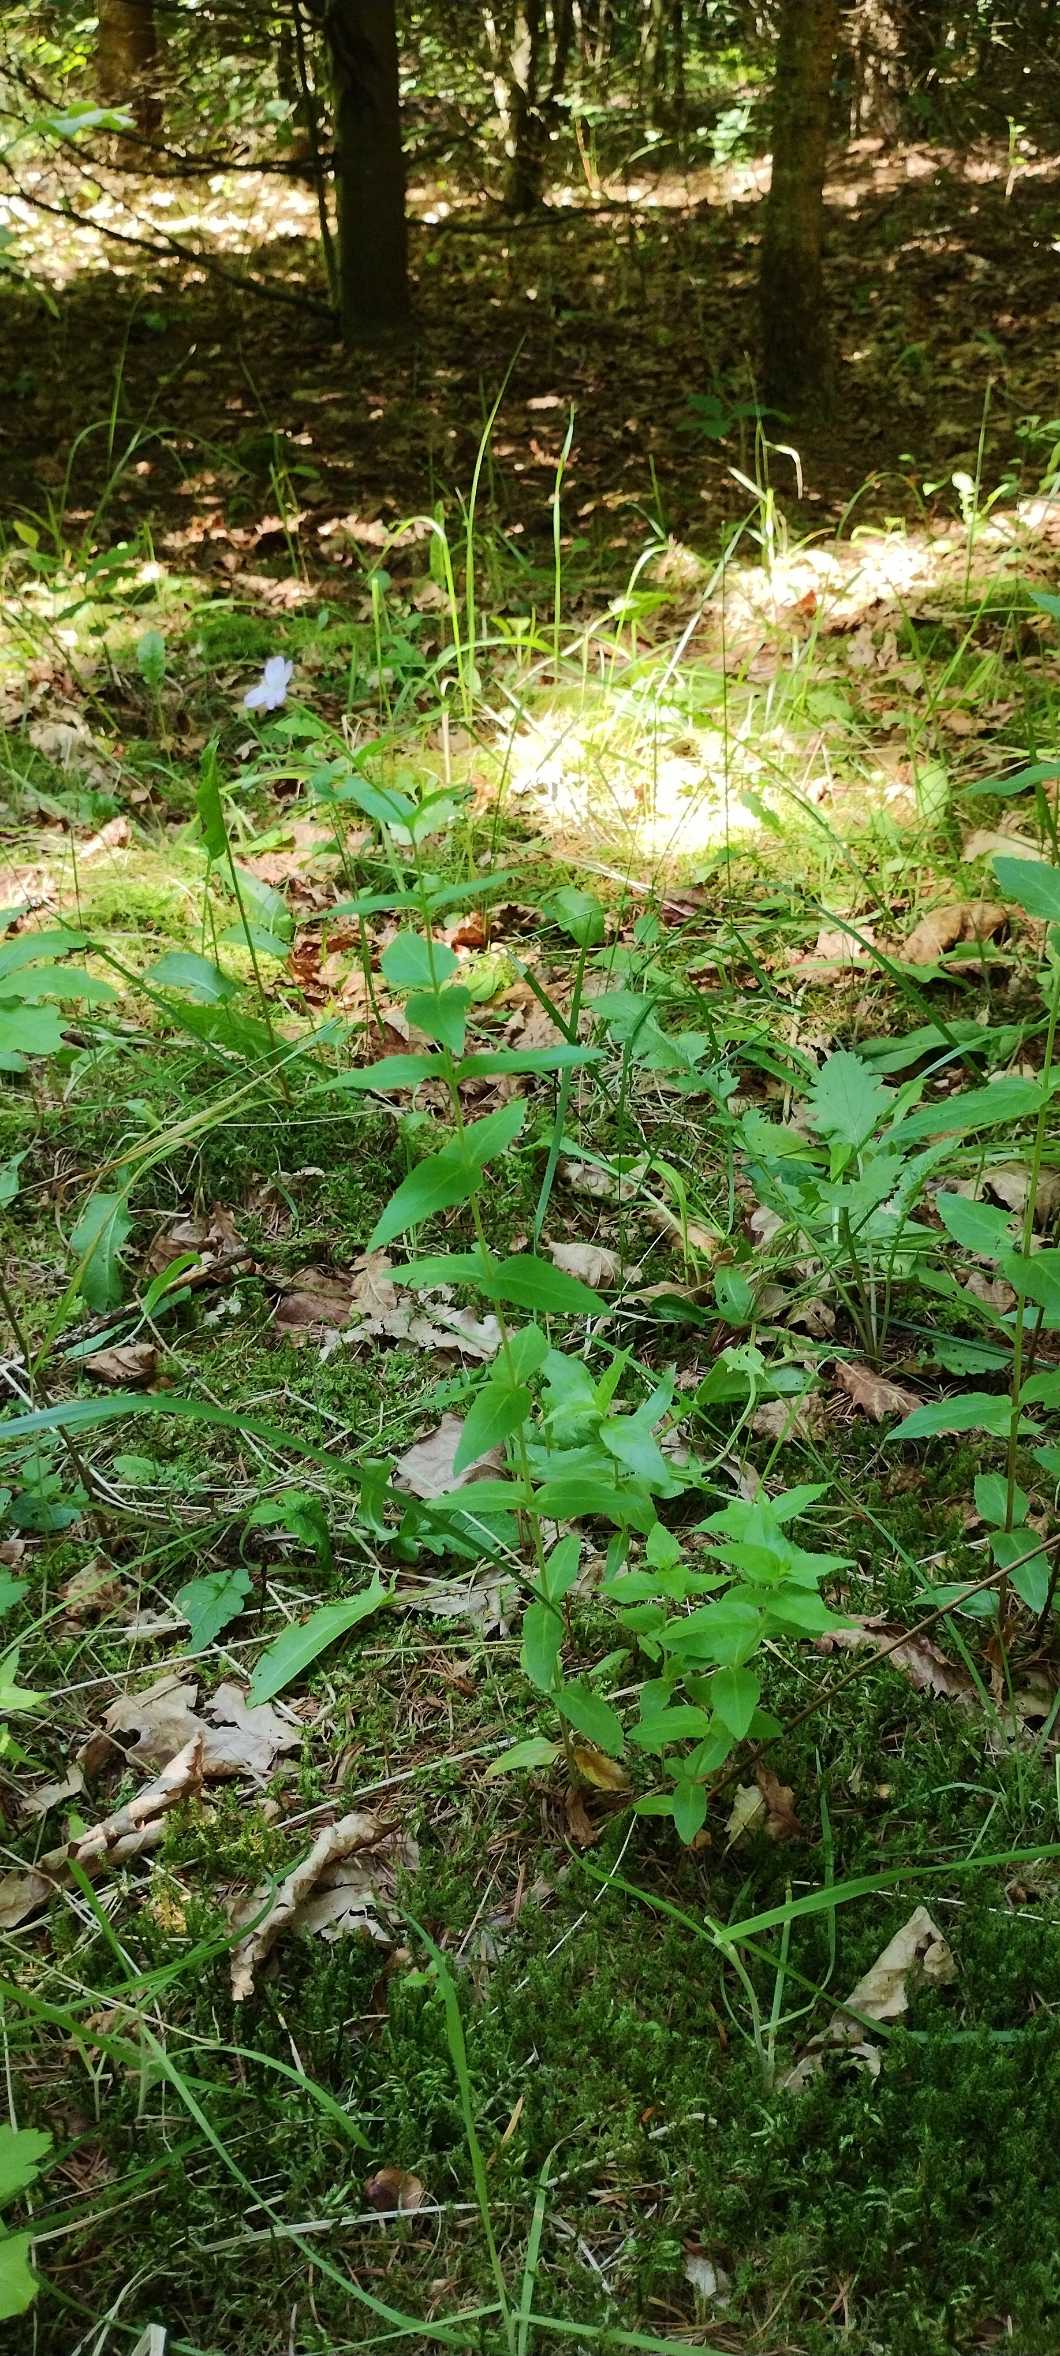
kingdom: Plantae
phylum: Tracheophyta
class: Magnoliopsida
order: Myrtales
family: Onagraceae
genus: Epilobium
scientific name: Epilobium montanum
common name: Glat dueurt
